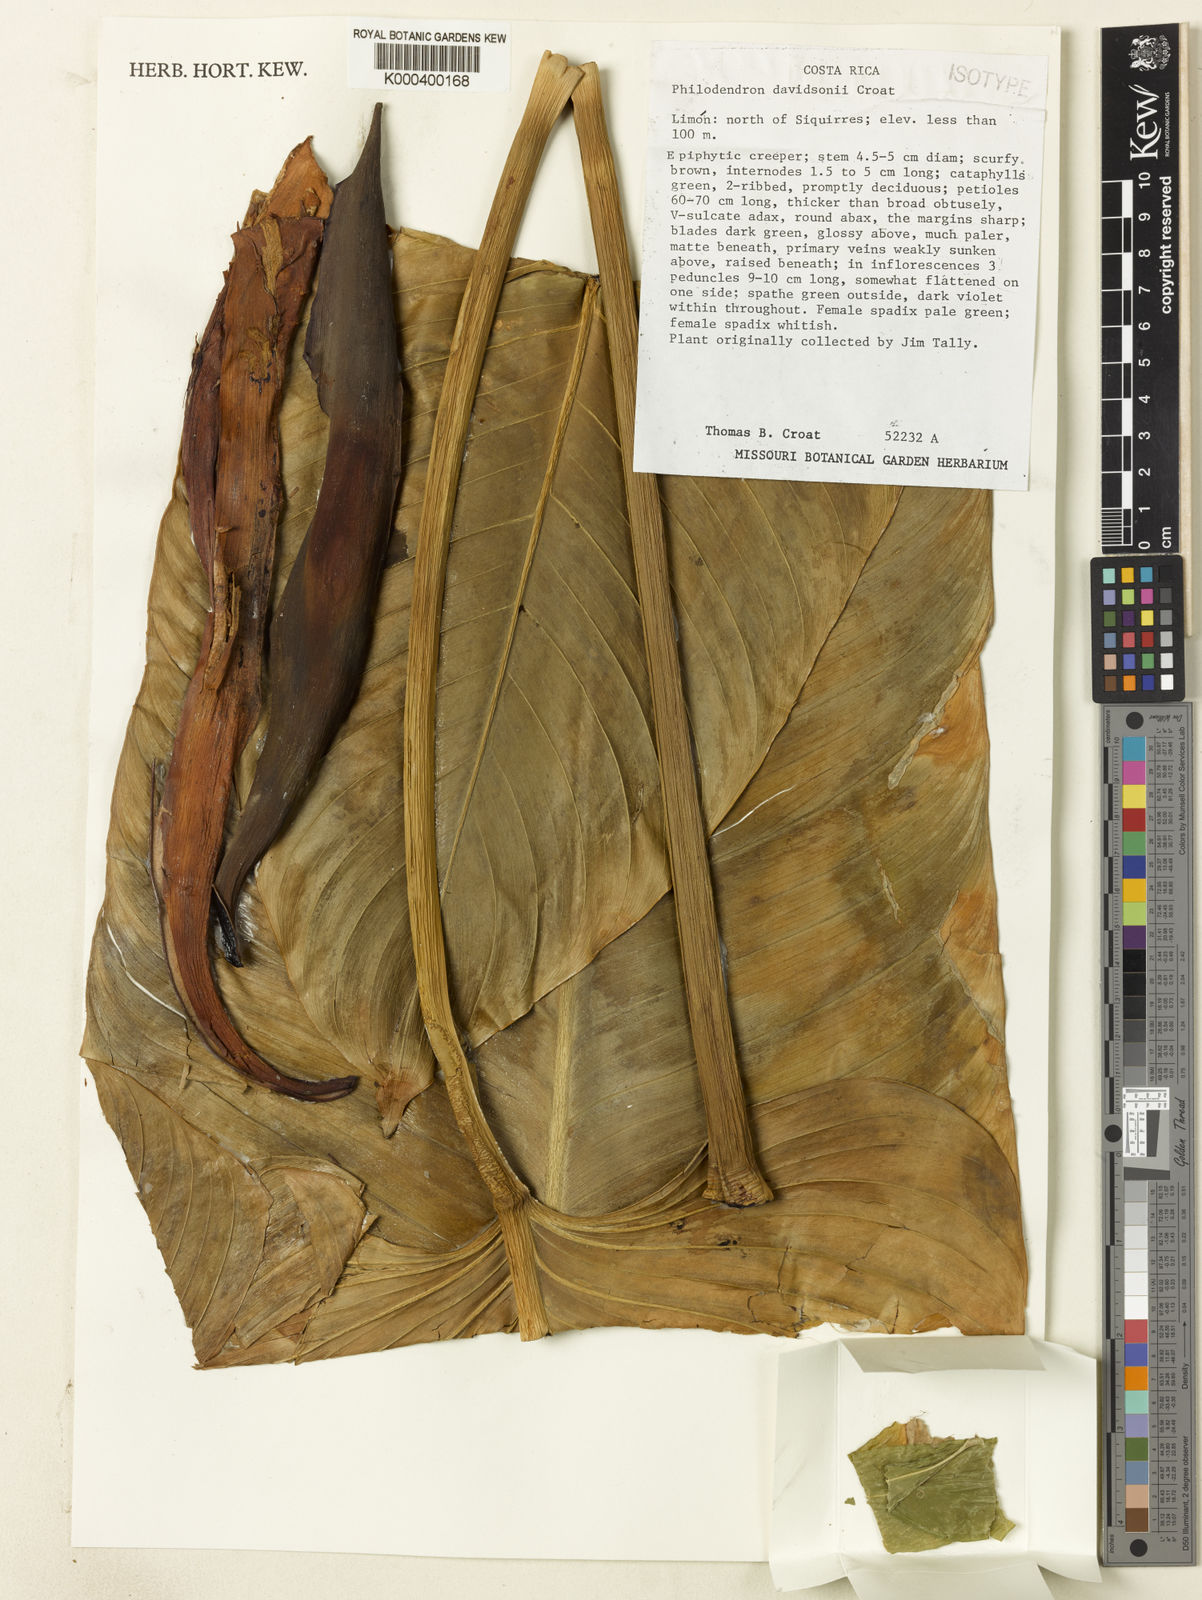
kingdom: Plantae
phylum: Tracheophyta
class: Liliopsida
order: Alismatales
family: Araceae
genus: Philodendron
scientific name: Philodendron davidsonii
